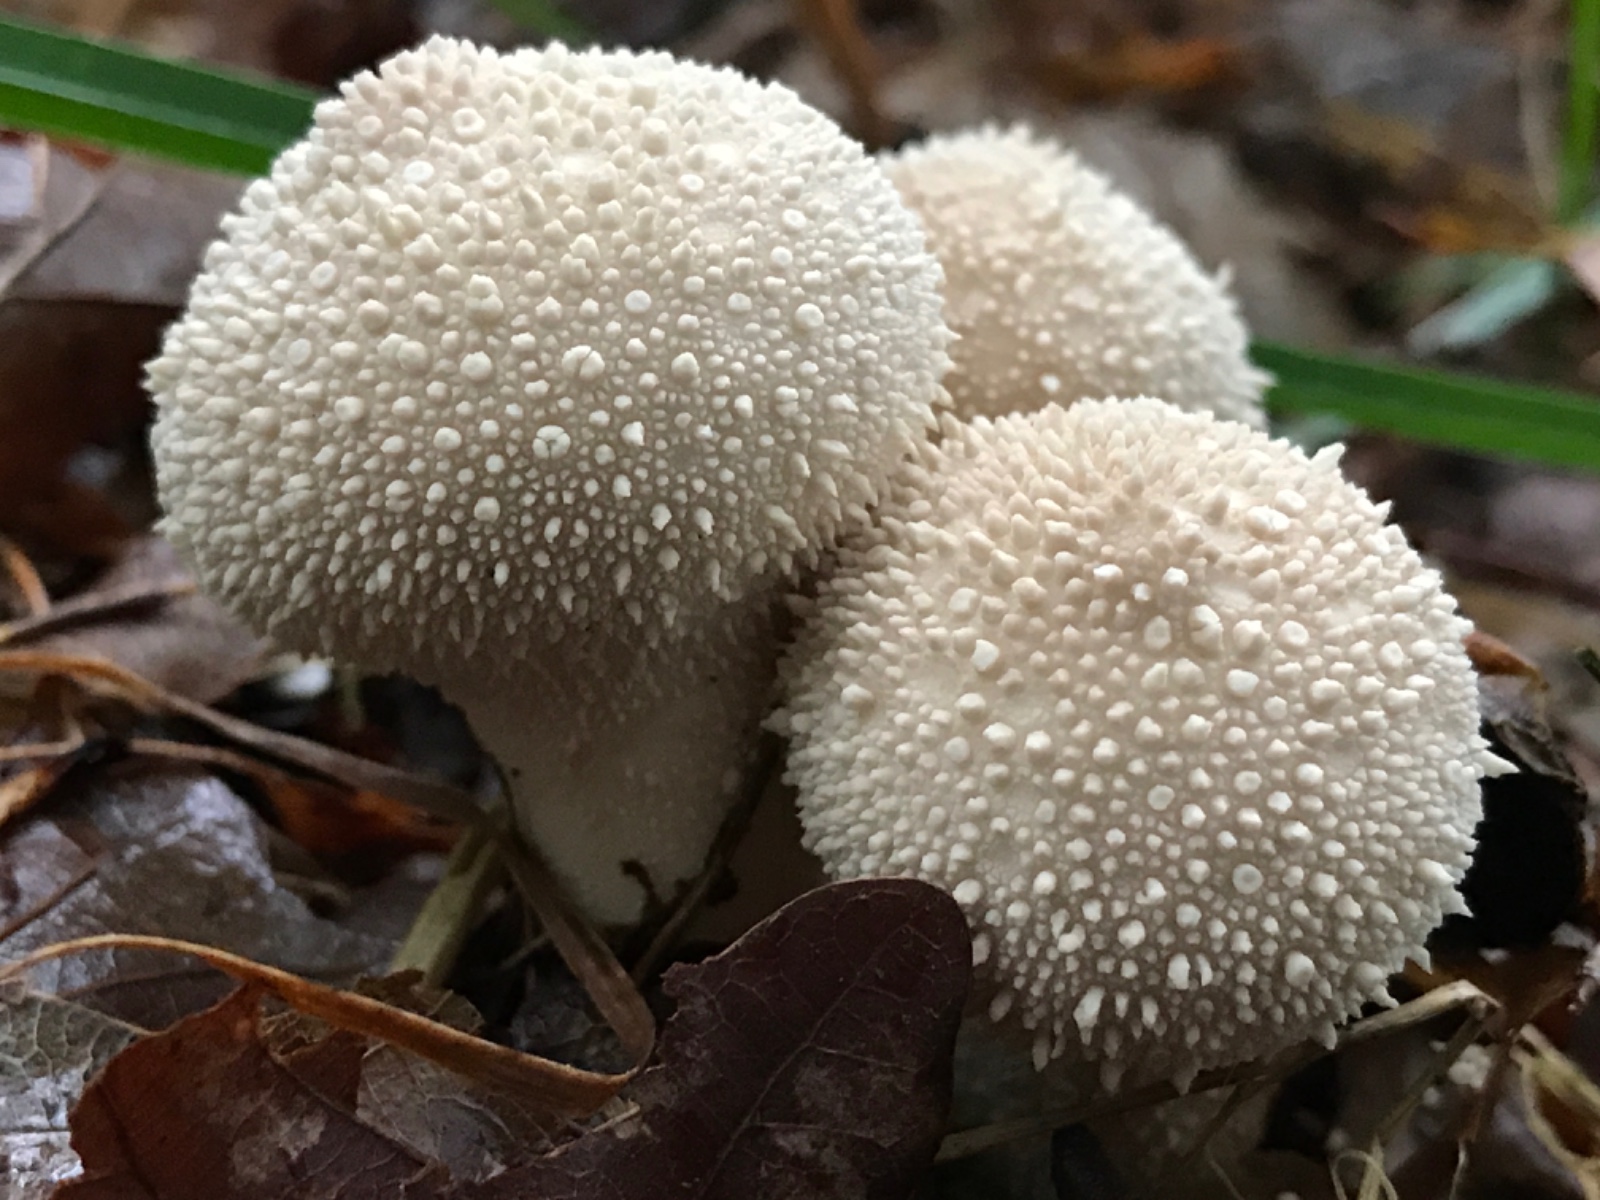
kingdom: Fungi
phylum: Basidiomycota
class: Agaricomycetes
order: Agaricales
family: Lycoperdaceae
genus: Lycoperdon
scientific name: Lycoperdon perlatum
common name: krystal-støvbold
